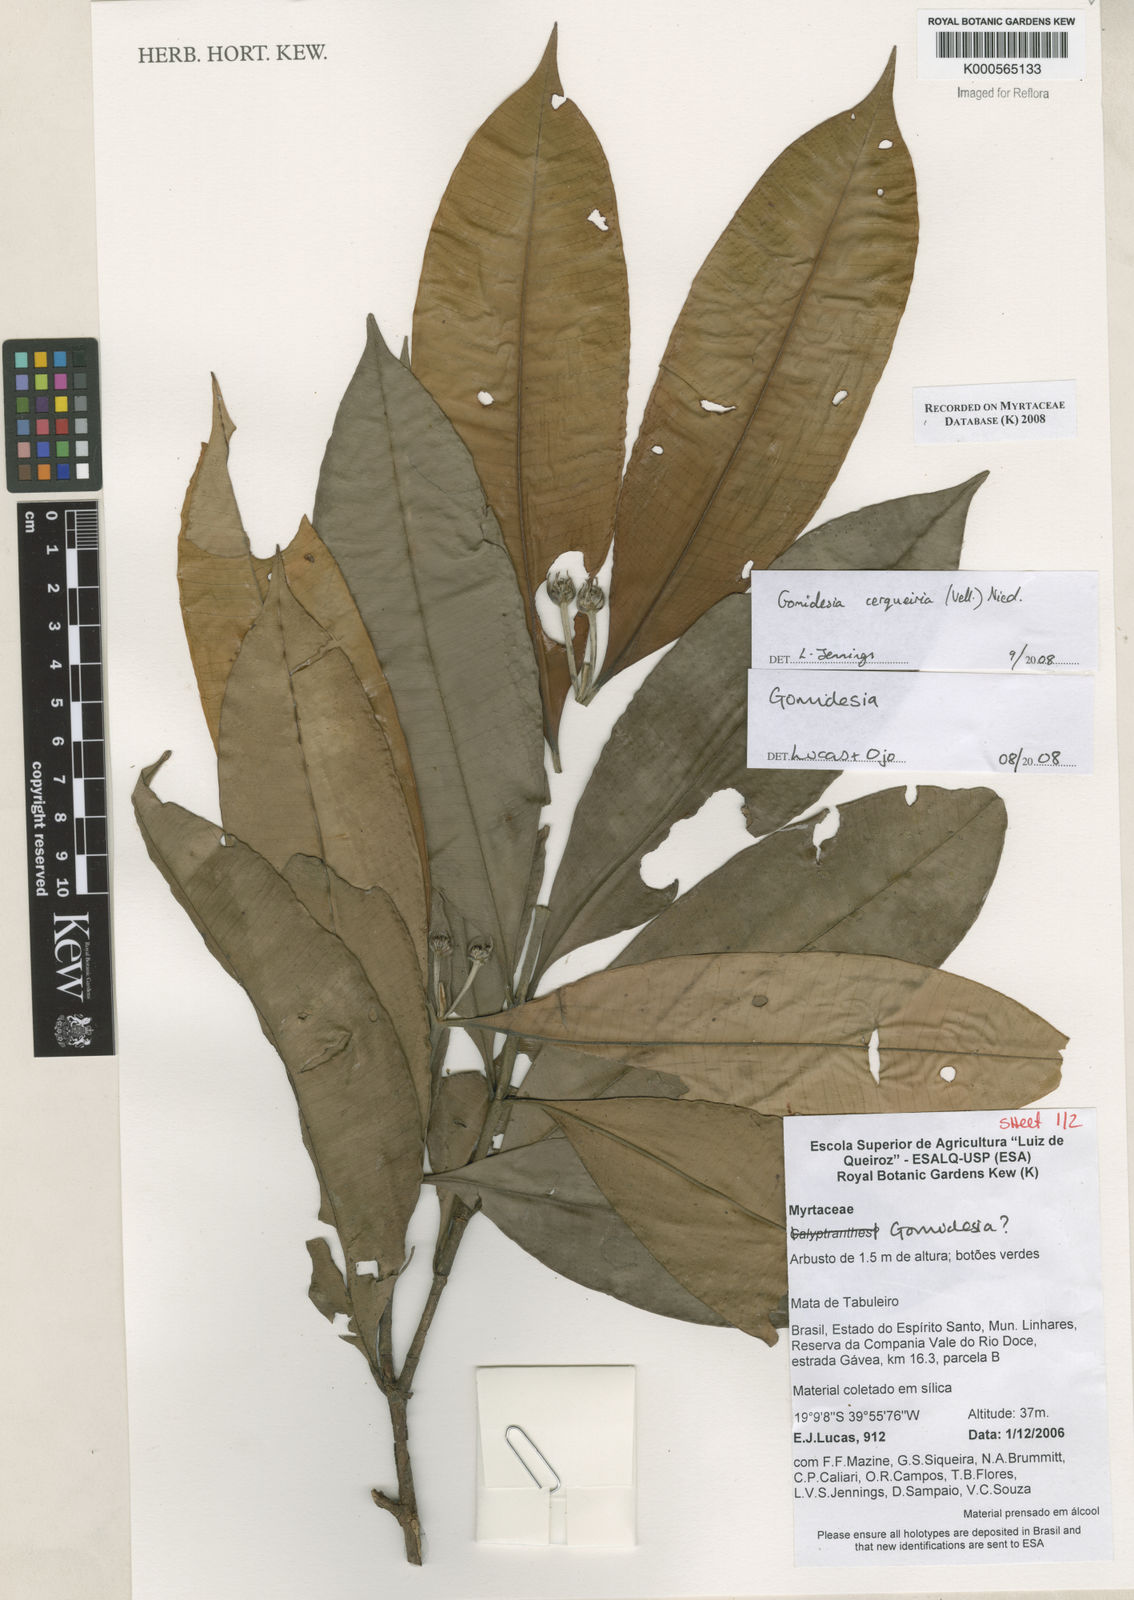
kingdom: Plantae
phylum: Tracheophyta
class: Magnoliopsida
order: Myrtales
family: Myrtaceae
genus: Myrcia
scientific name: Myrcia
